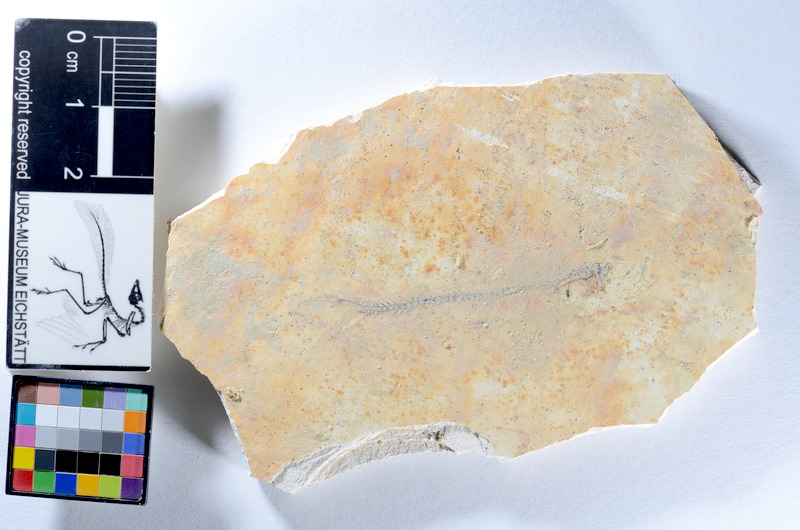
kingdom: Animalia
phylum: Chordata
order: Salmoniformes
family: Orthogonikleithridae
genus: Orthogonikleithrus
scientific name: Orthogonikleithrus hoelli
